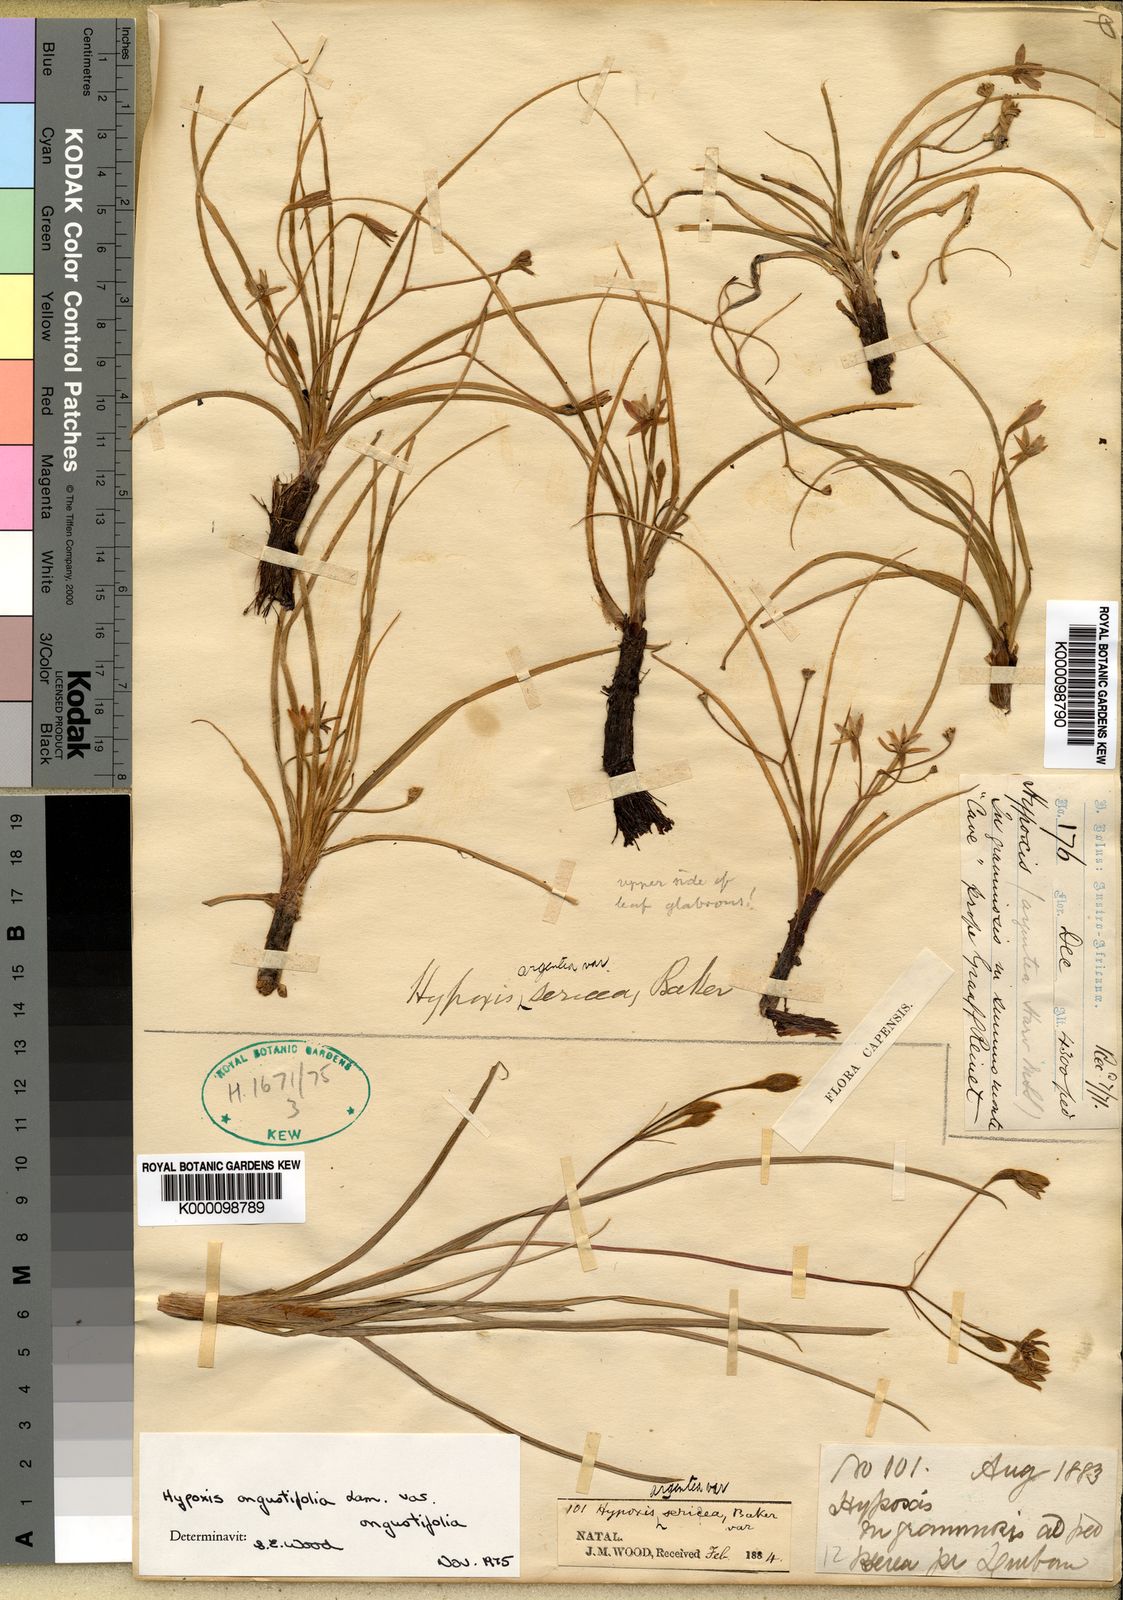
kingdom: Plantae
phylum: Tracheophyta
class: Liliopsida
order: Asparagales
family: Hypoxidaceae
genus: Hypoxis
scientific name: Hypoxis angustifolia
